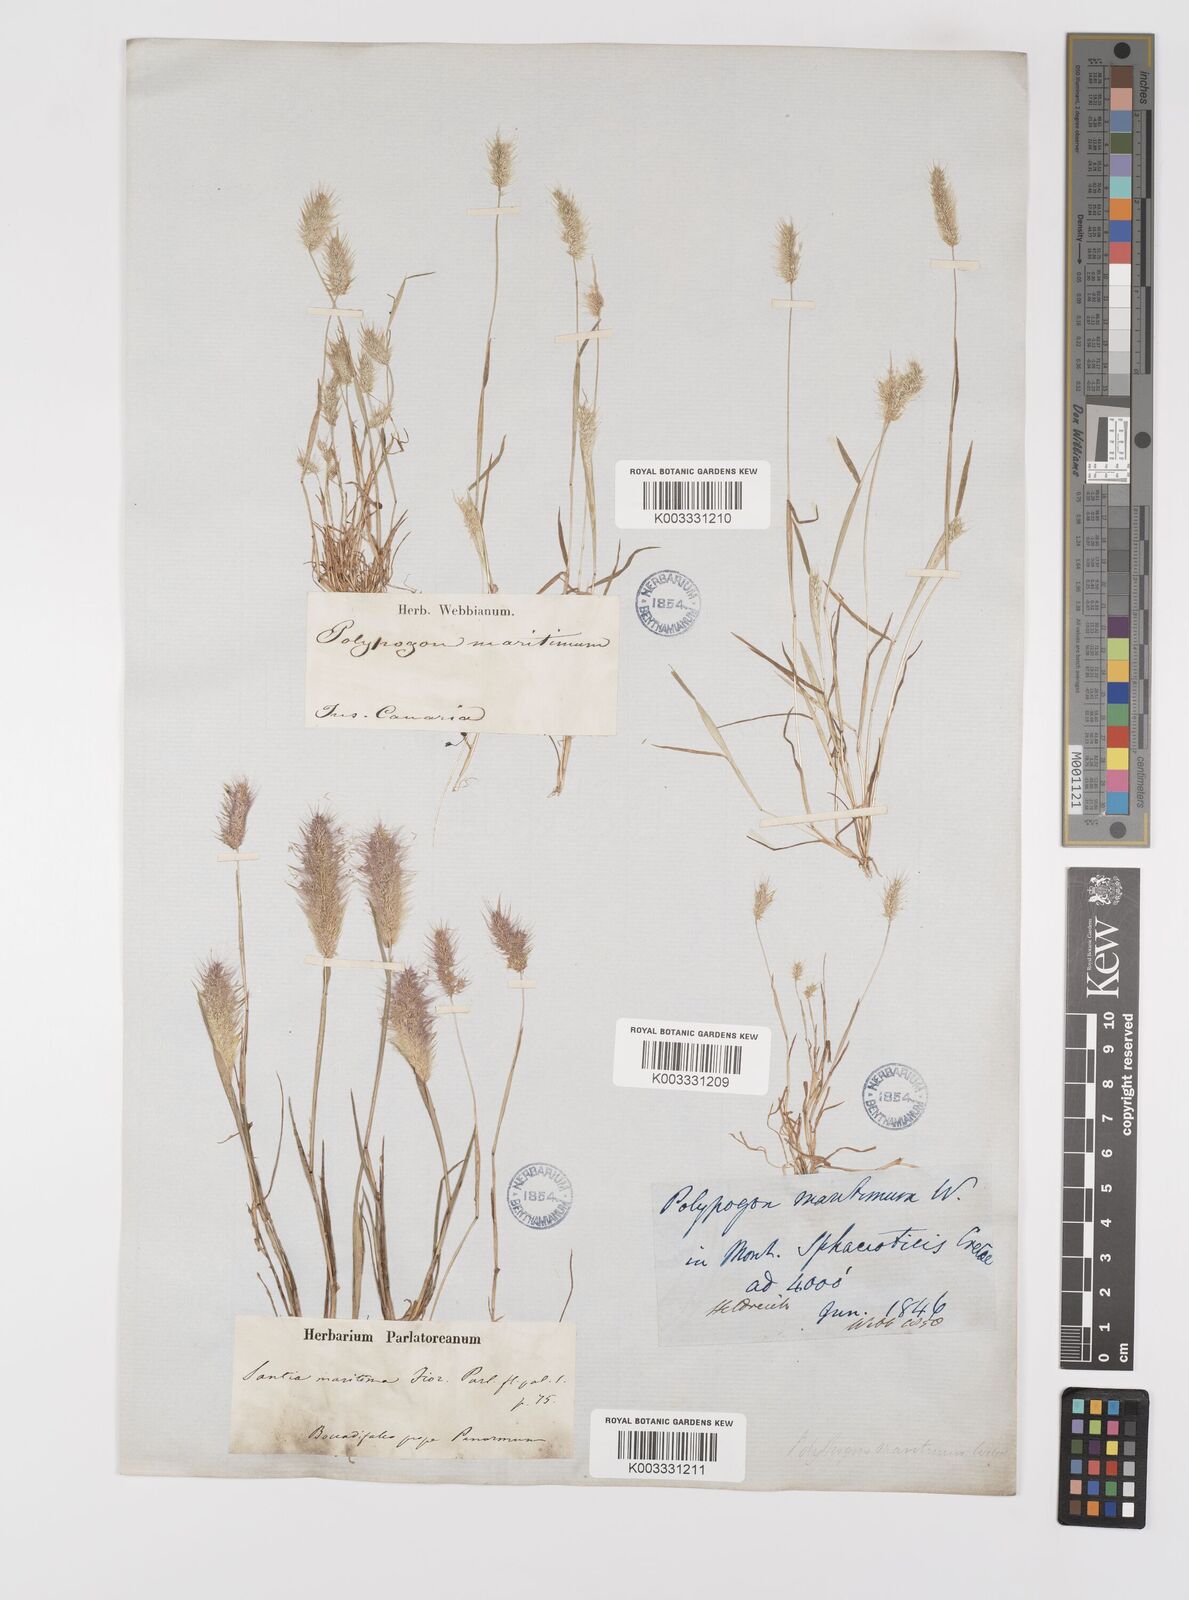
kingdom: Plantae
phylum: Tracheophyta
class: Liliopsida
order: Poales
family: Poaceae
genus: Polypogon
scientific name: Polypogon maritimus
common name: Mediterranean rabbitsfoot grass
